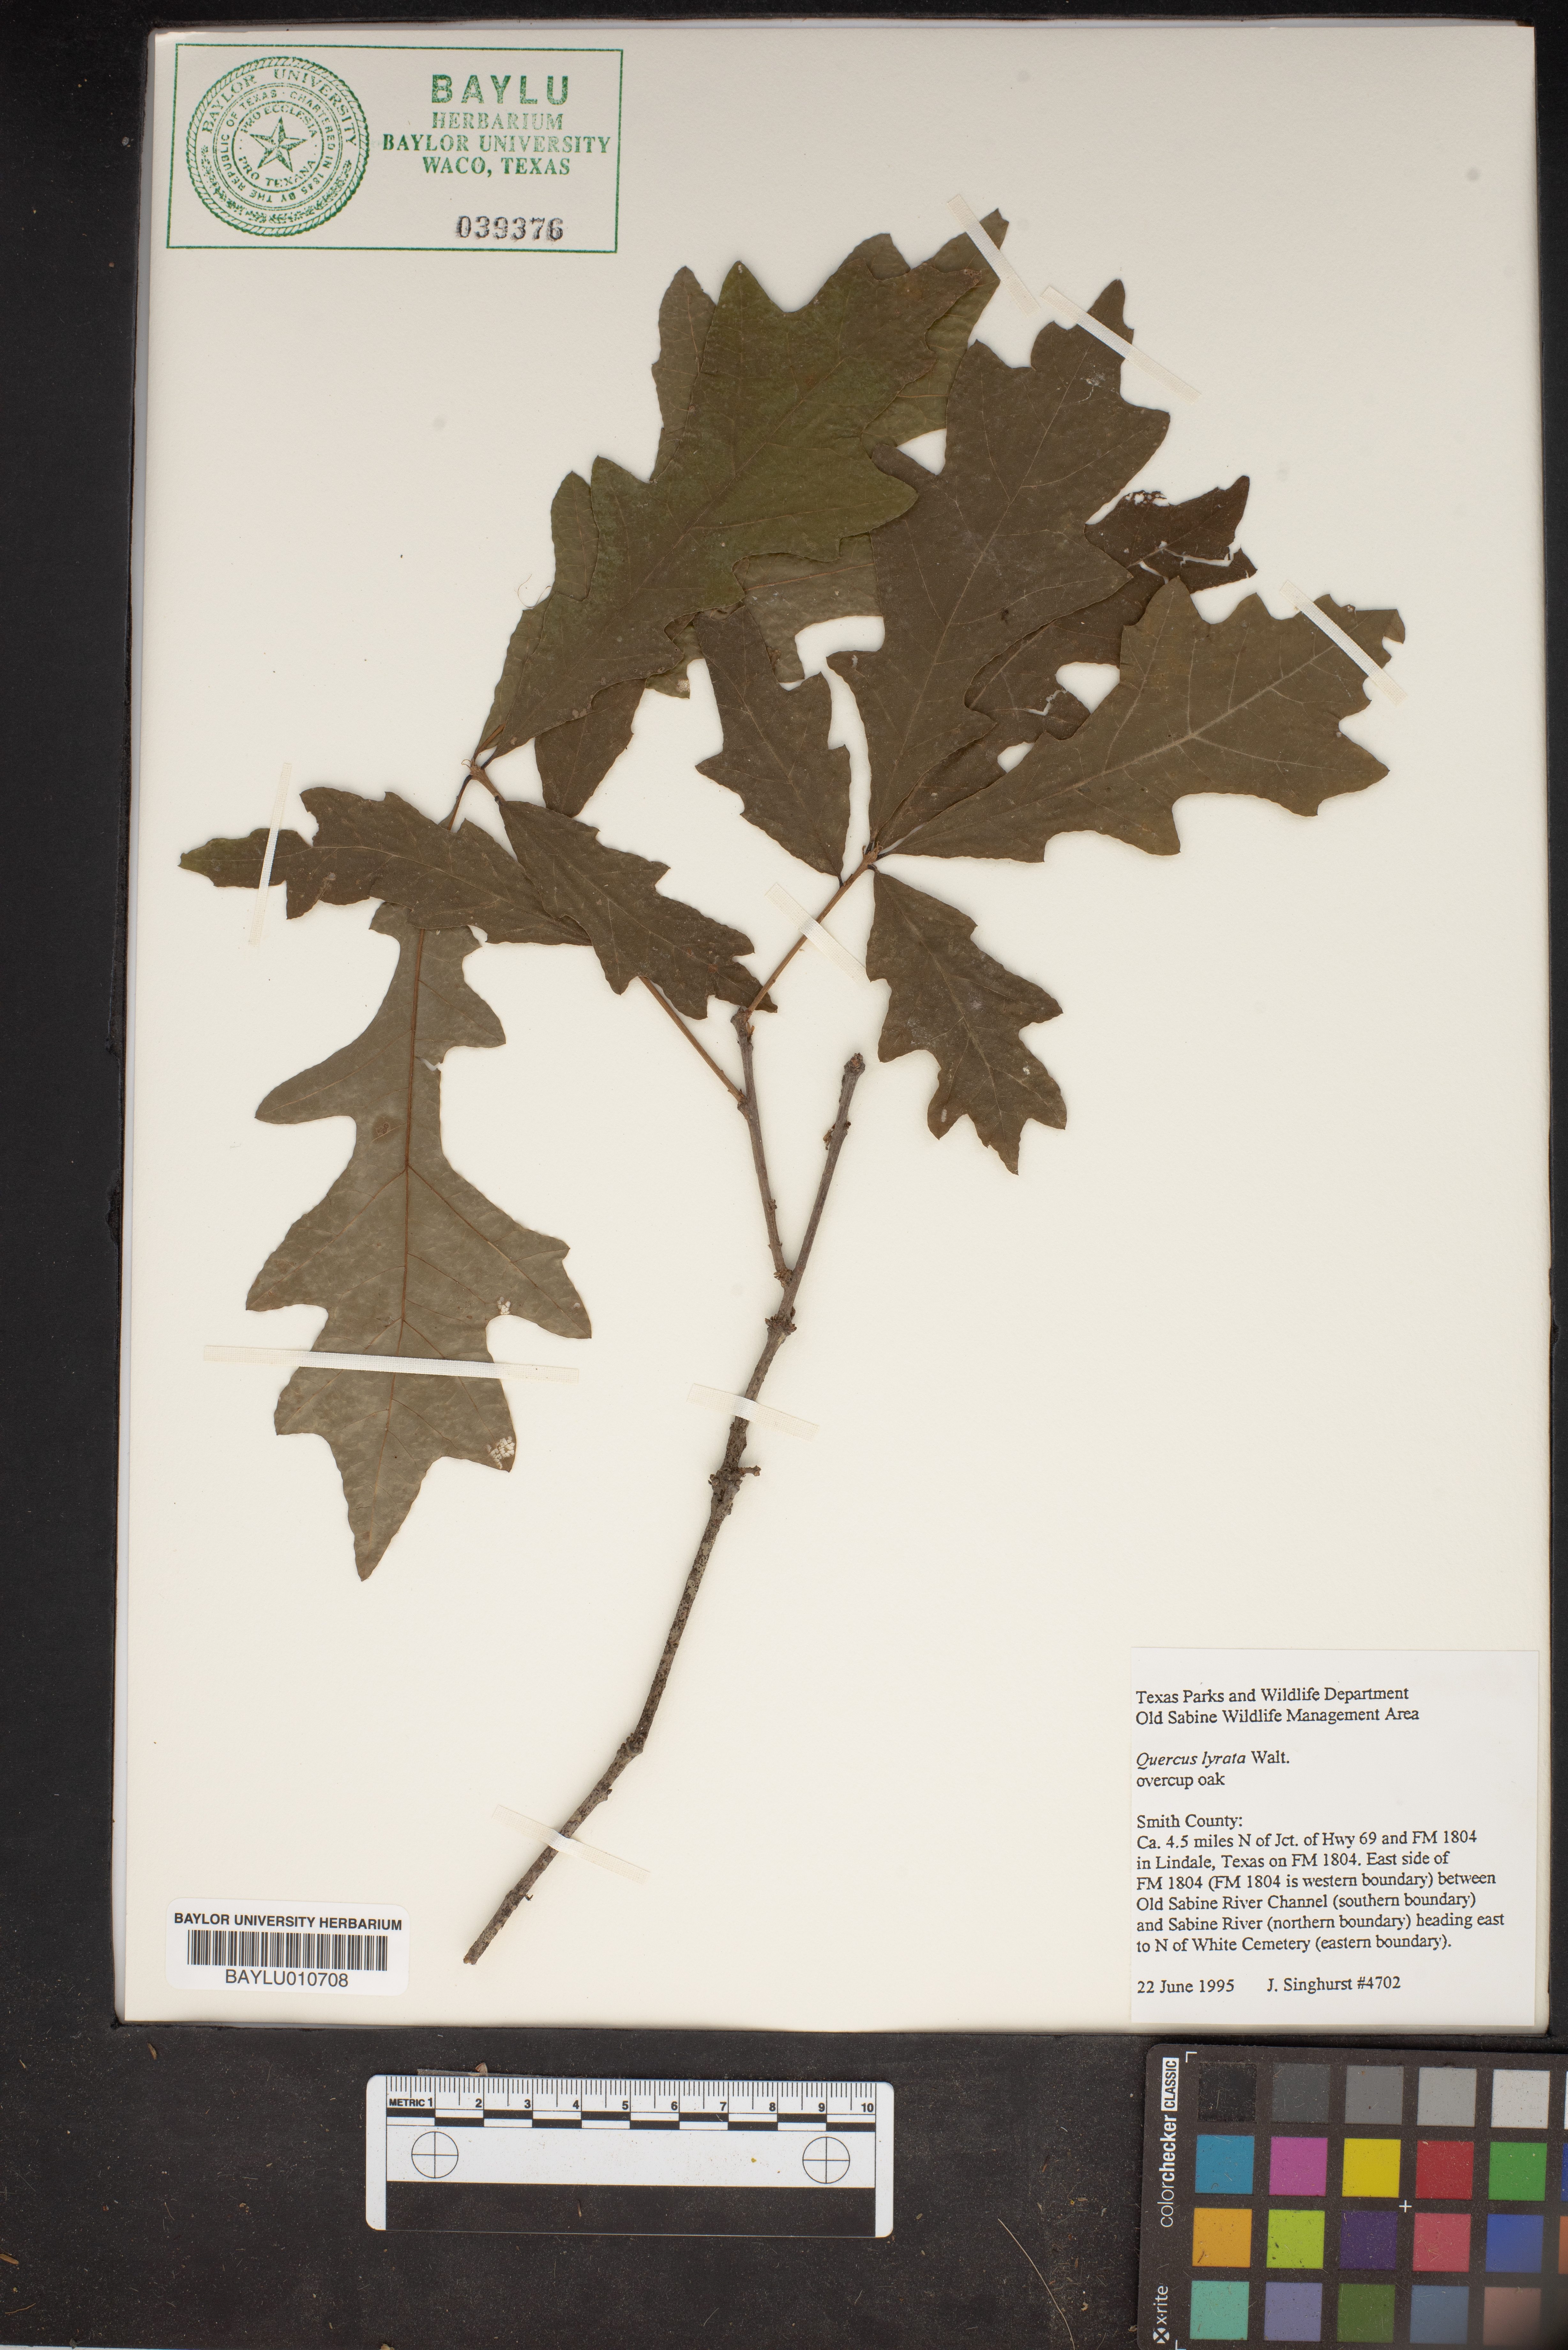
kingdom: Plantae
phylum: Tracheophyta
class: Magnoliopsida
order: Fagales
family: Fagaceae
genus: Quercus
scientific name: Quercus lyrata
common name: Overcup oak
